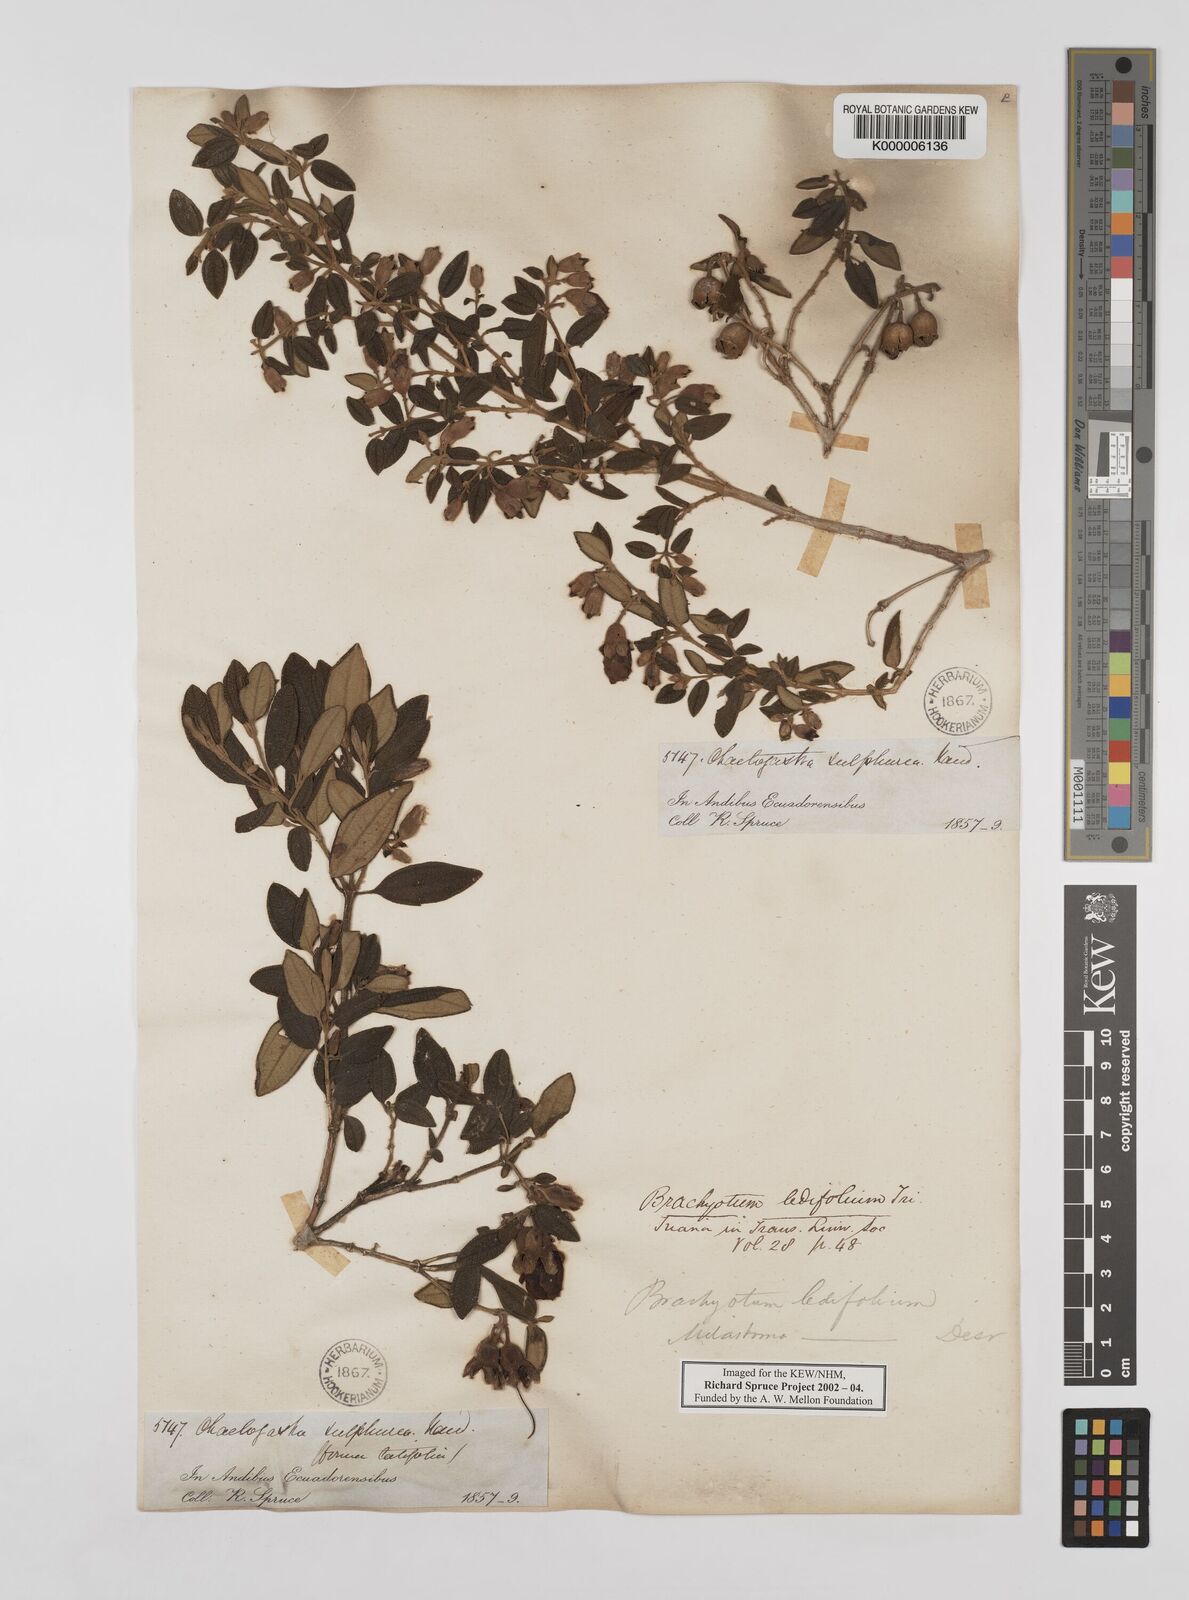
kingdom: Plantae
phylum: Tracheophyta
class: Magnoliopsida
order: Myrtales
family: Melastomataceae
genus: Brachyotum
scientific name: Brachyotum ledifolium
